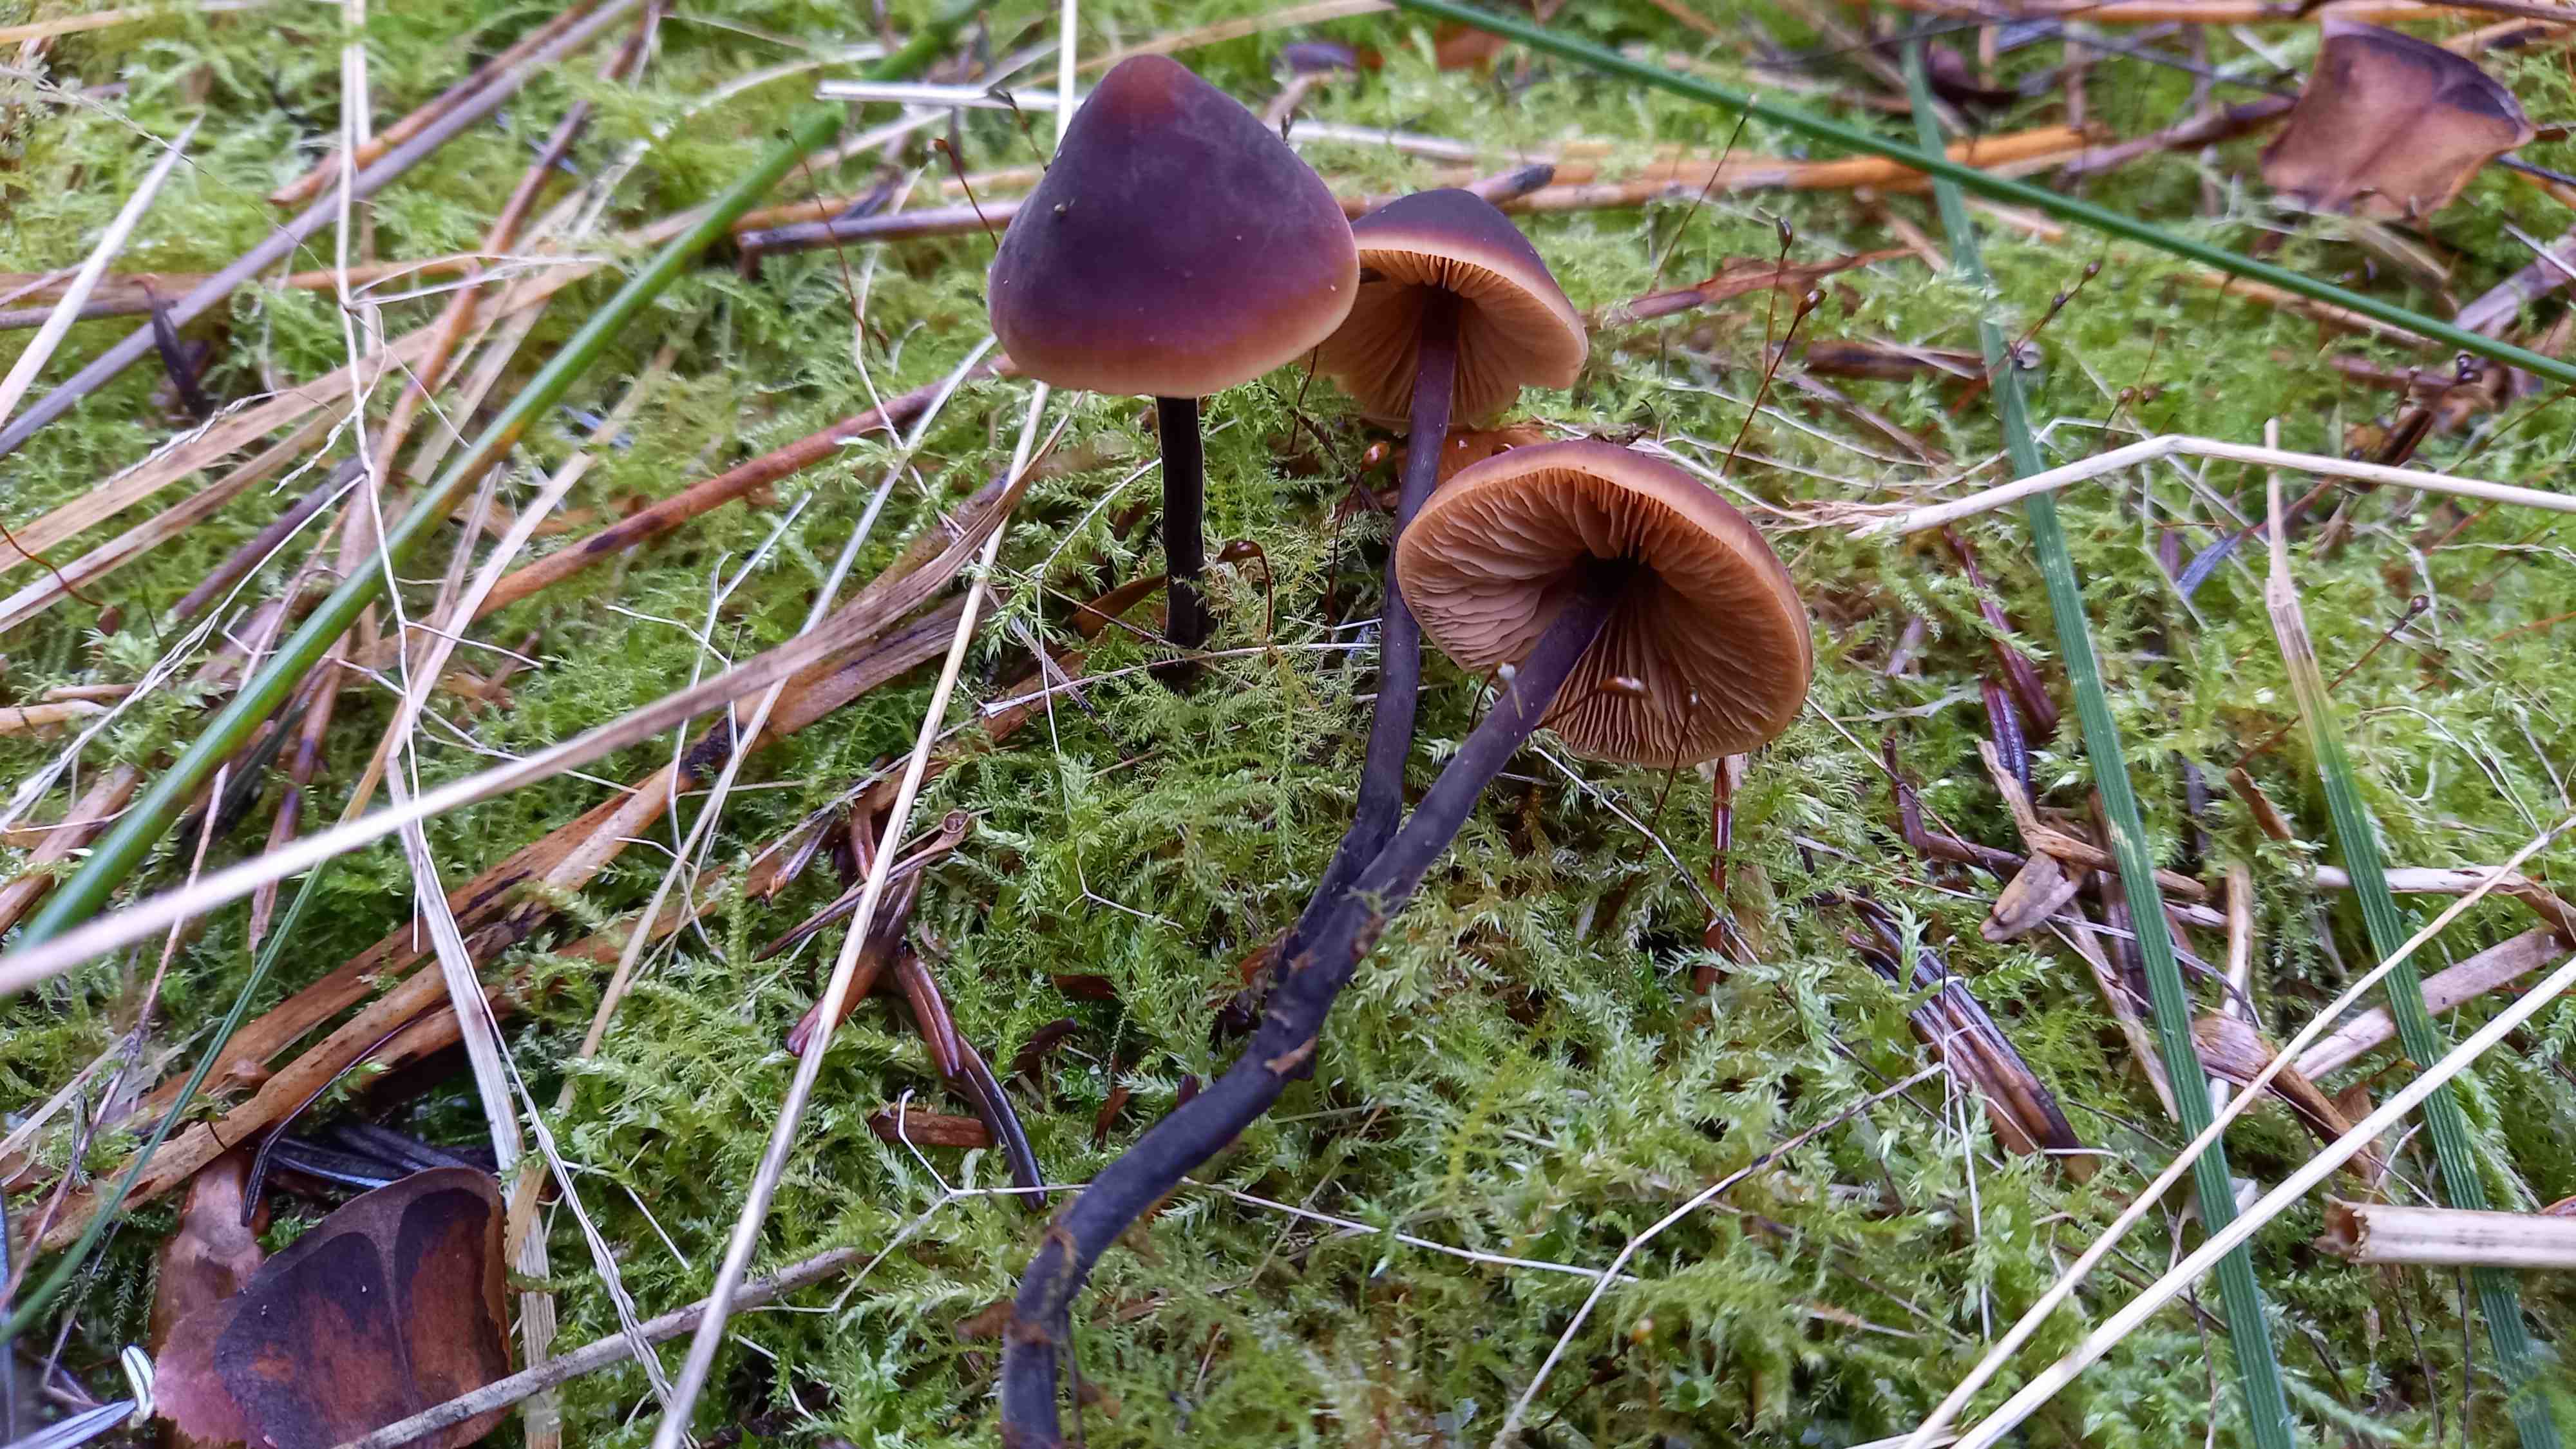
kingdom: Fungi
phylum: Basidiomycota
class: Agaricomycetes
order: Agaricales
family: Macrocystidiaceae
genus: Macrocystidia
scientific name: Macrocystidia cucumis
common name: agurkehat
